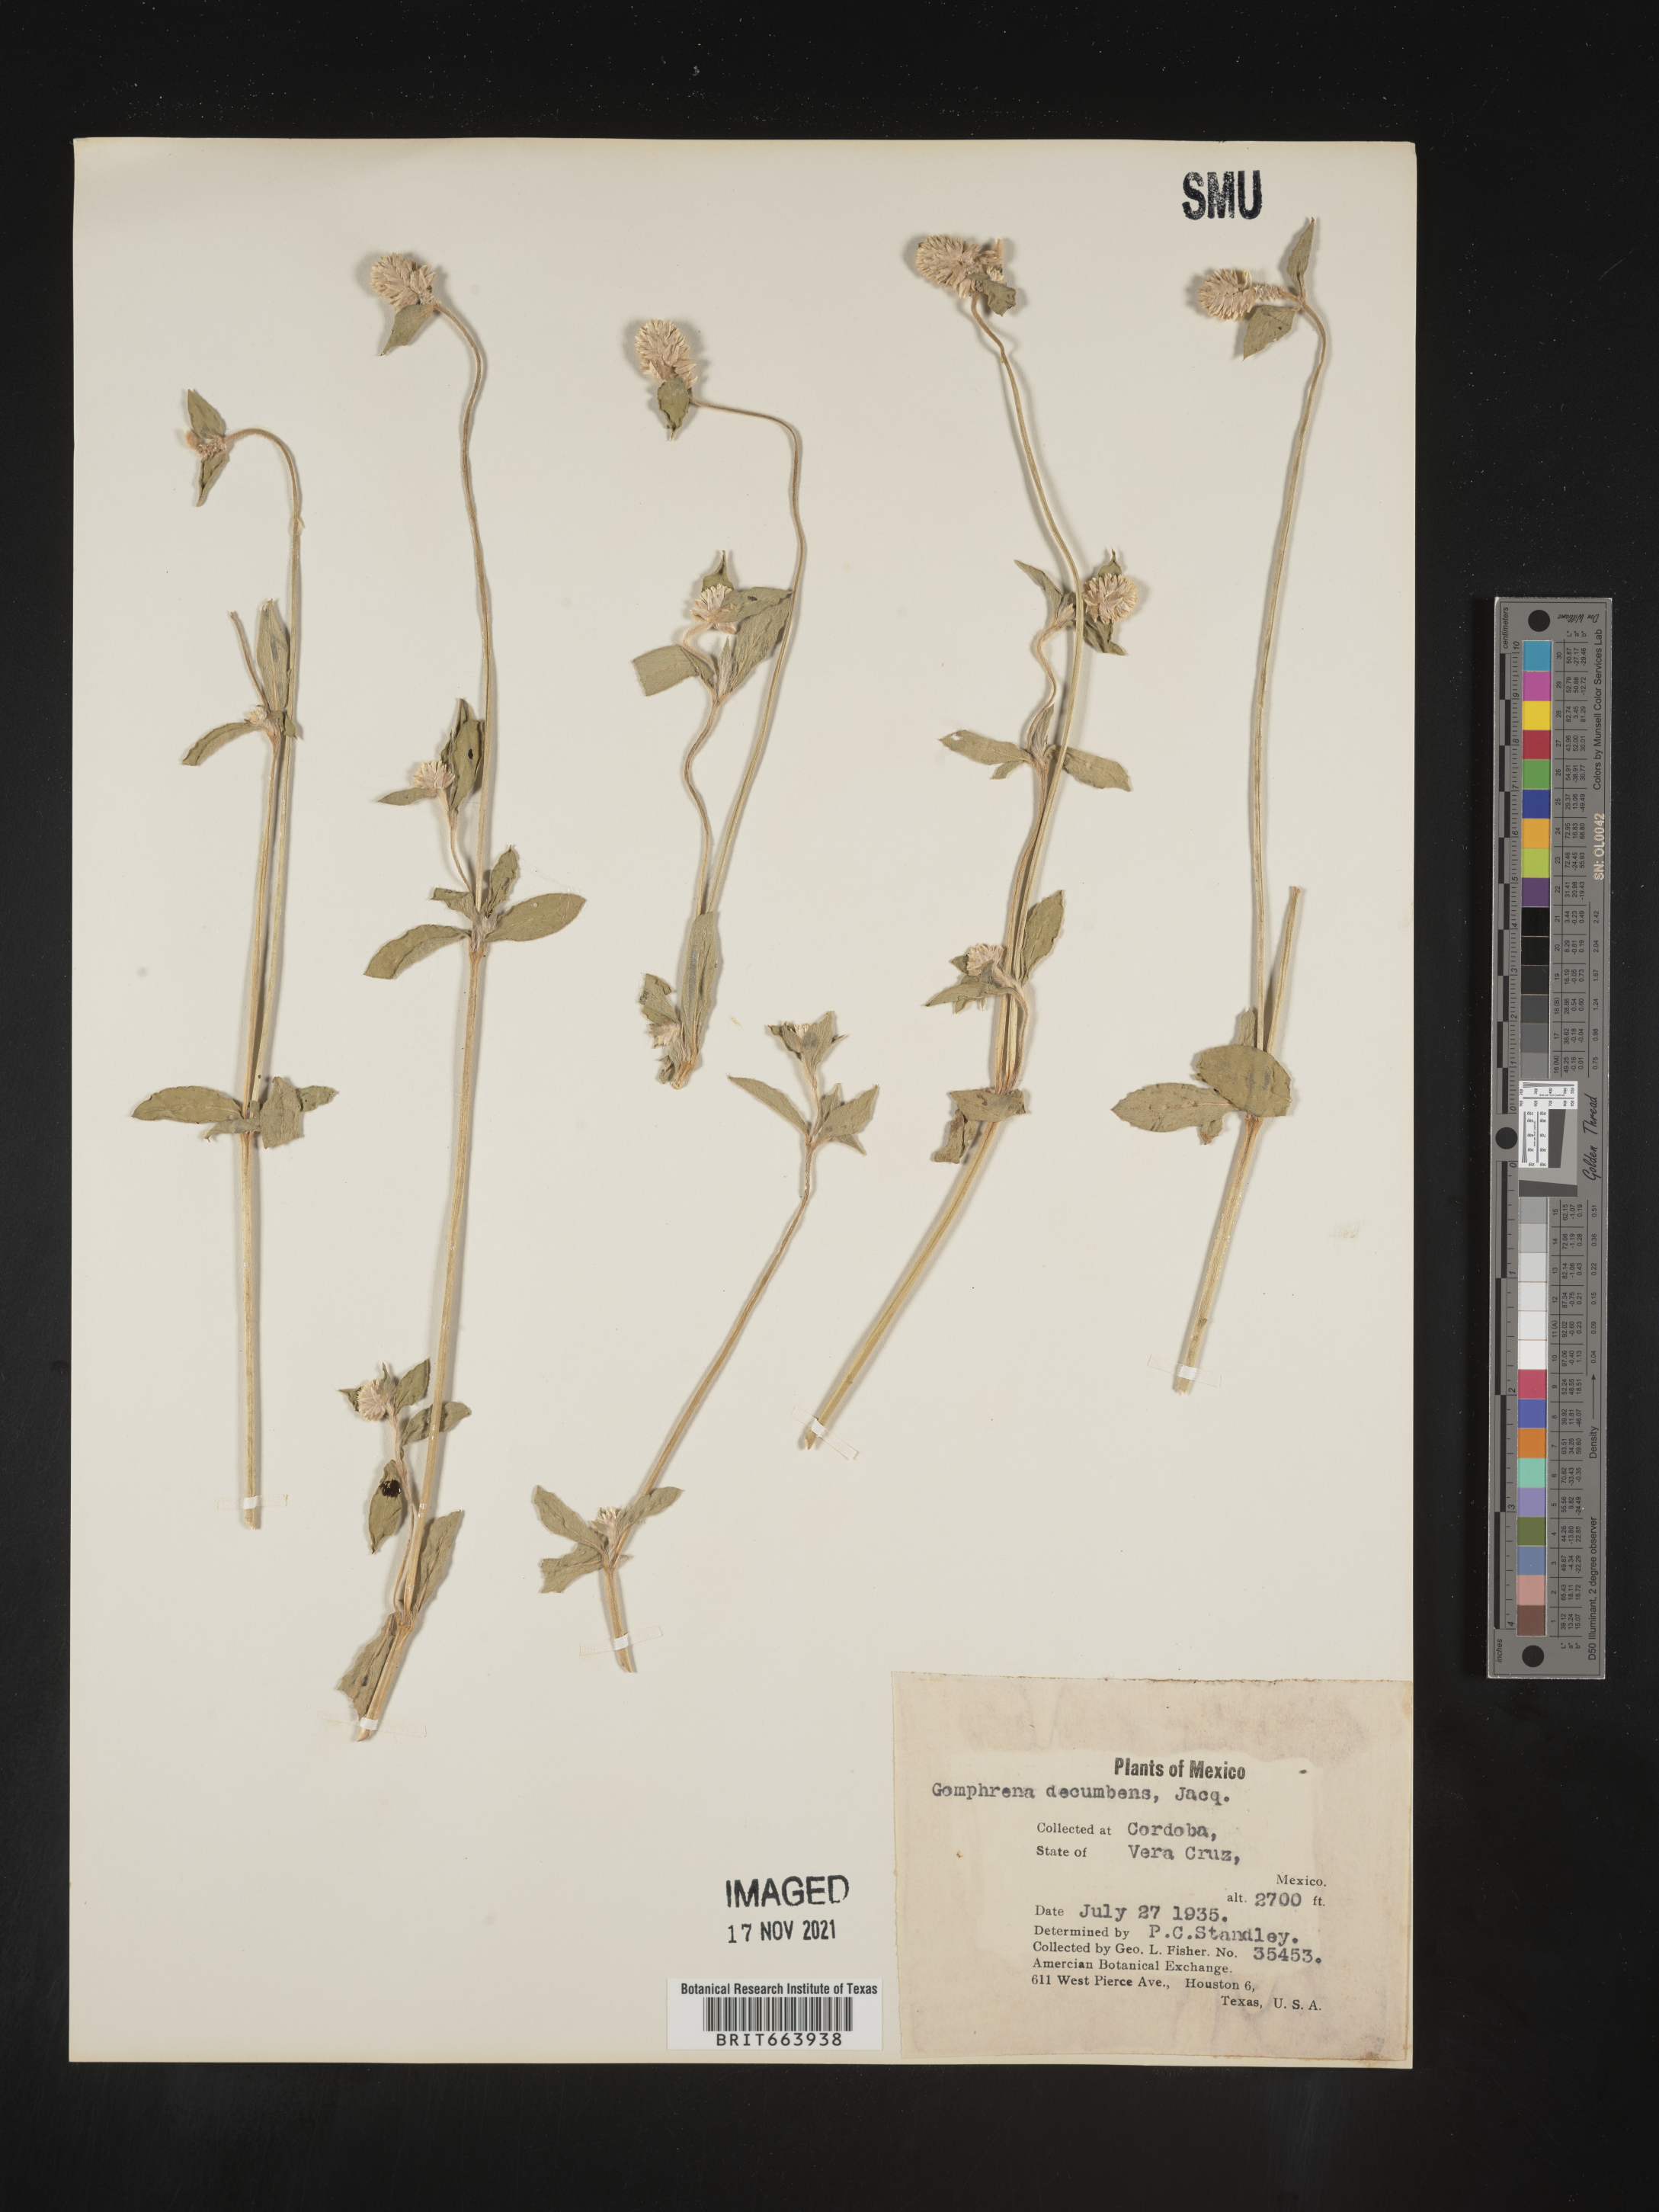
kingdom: Plantae
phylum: Tracheophyta
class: Magnoliopsida
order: Caryophyllales
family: Amaranthaceae
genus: Gomphrena
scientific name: Gomphrena
